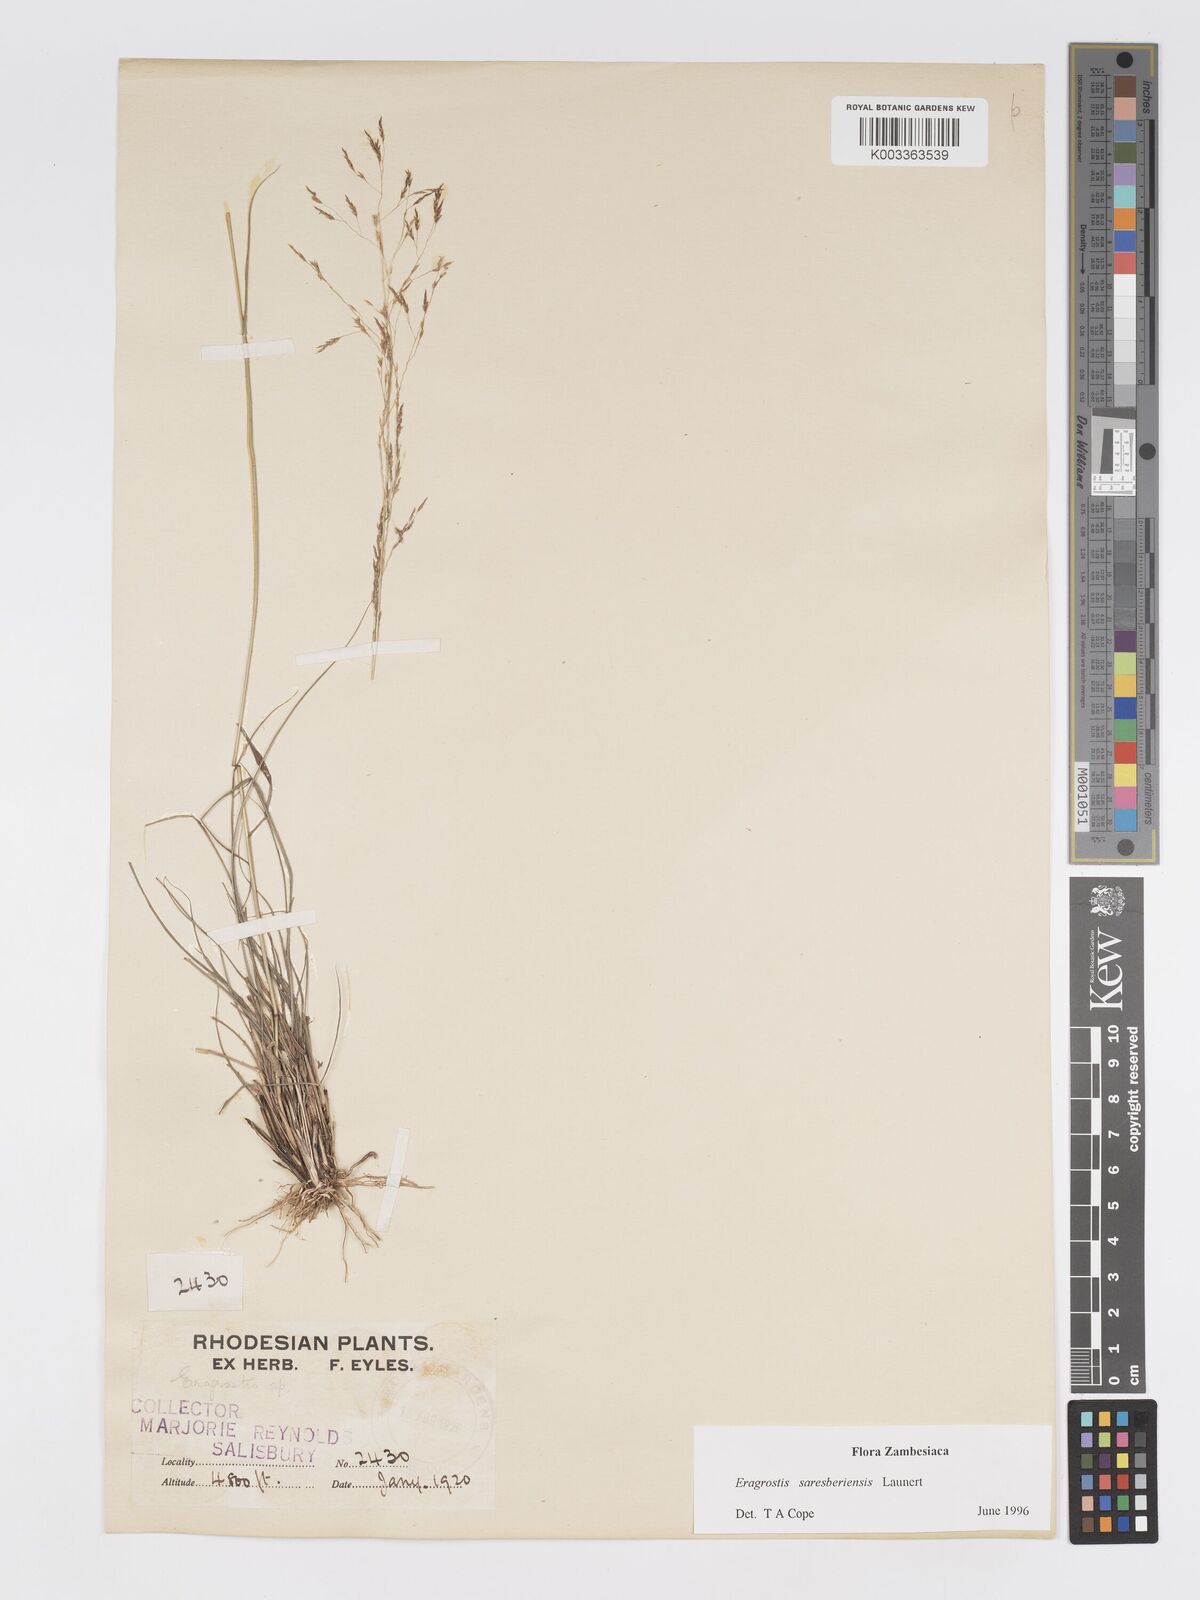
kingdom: Plantae
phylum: Tracheophyta
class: Liliopsida
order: Poales
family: Poaceae
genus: Eragrostis
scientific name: Eragrostis saresberiensis
